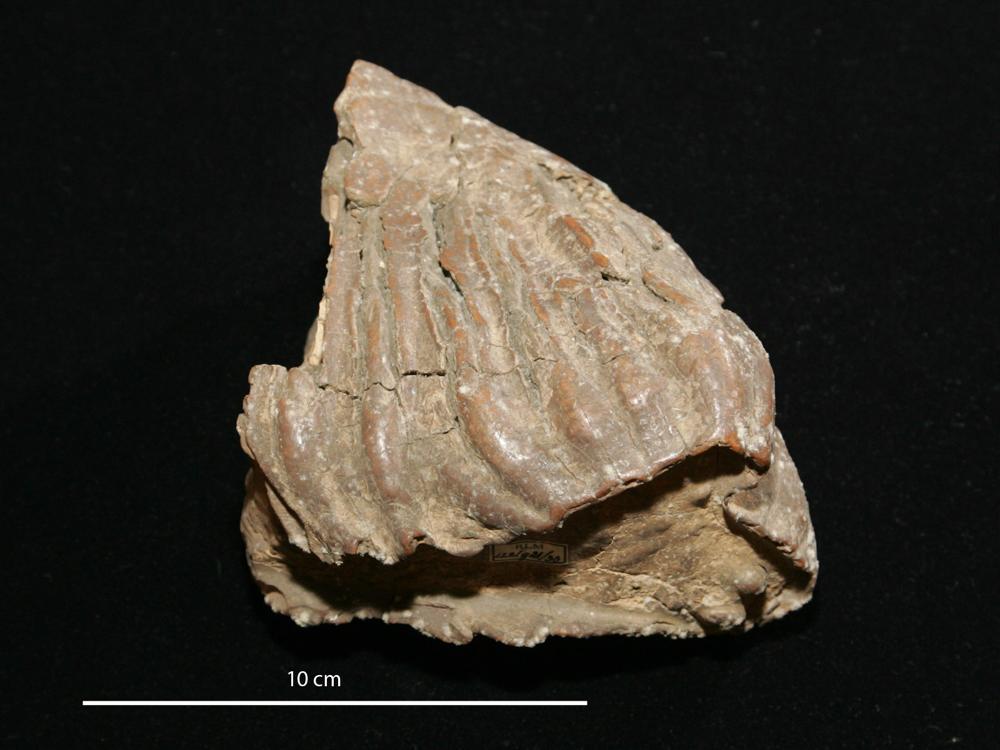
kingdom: Animalia
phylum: Chordata
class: Mammalia
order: Proboscidea
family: Elephantidae
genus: Mammuthus
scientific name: Mammuthus primigenius
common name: Wooly mammoth
